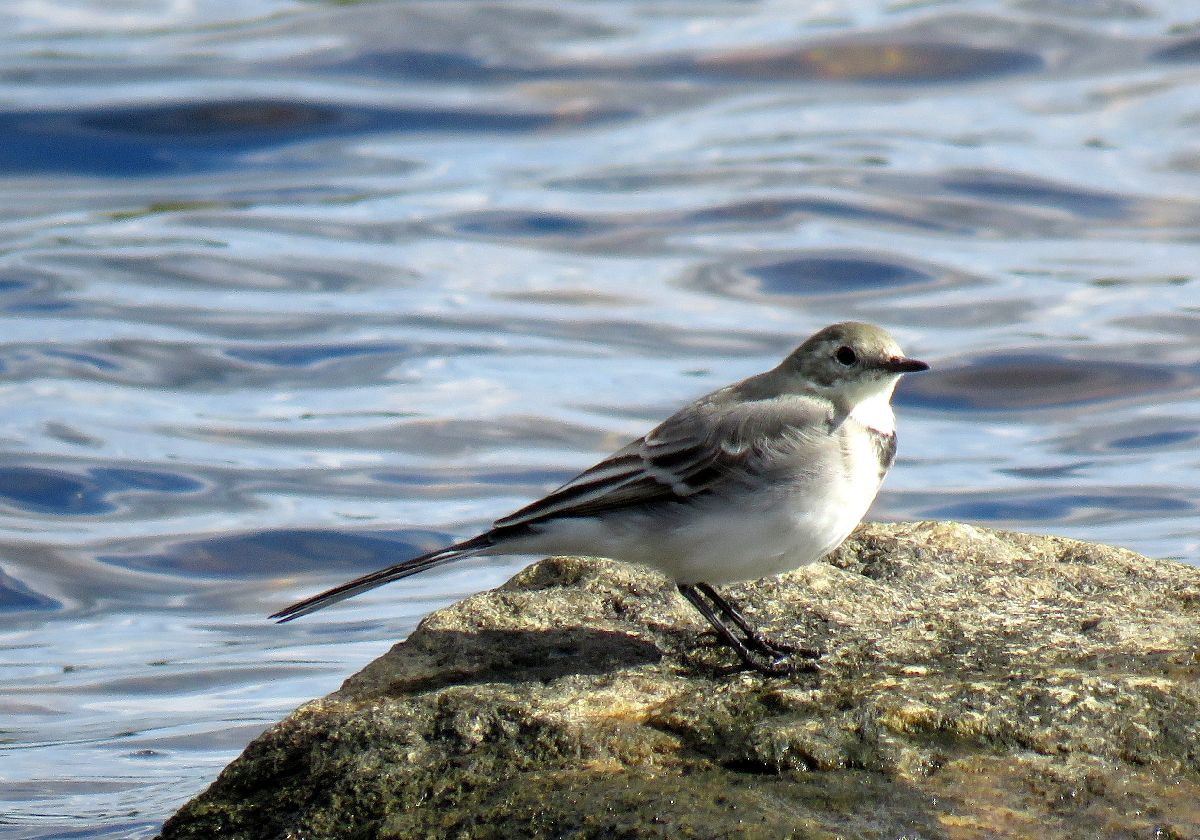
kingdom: Animalia
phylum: Chordata
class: Aves
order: Passeriformes
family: Motacillidae
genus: Motacilla
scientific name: Motacilla alba
